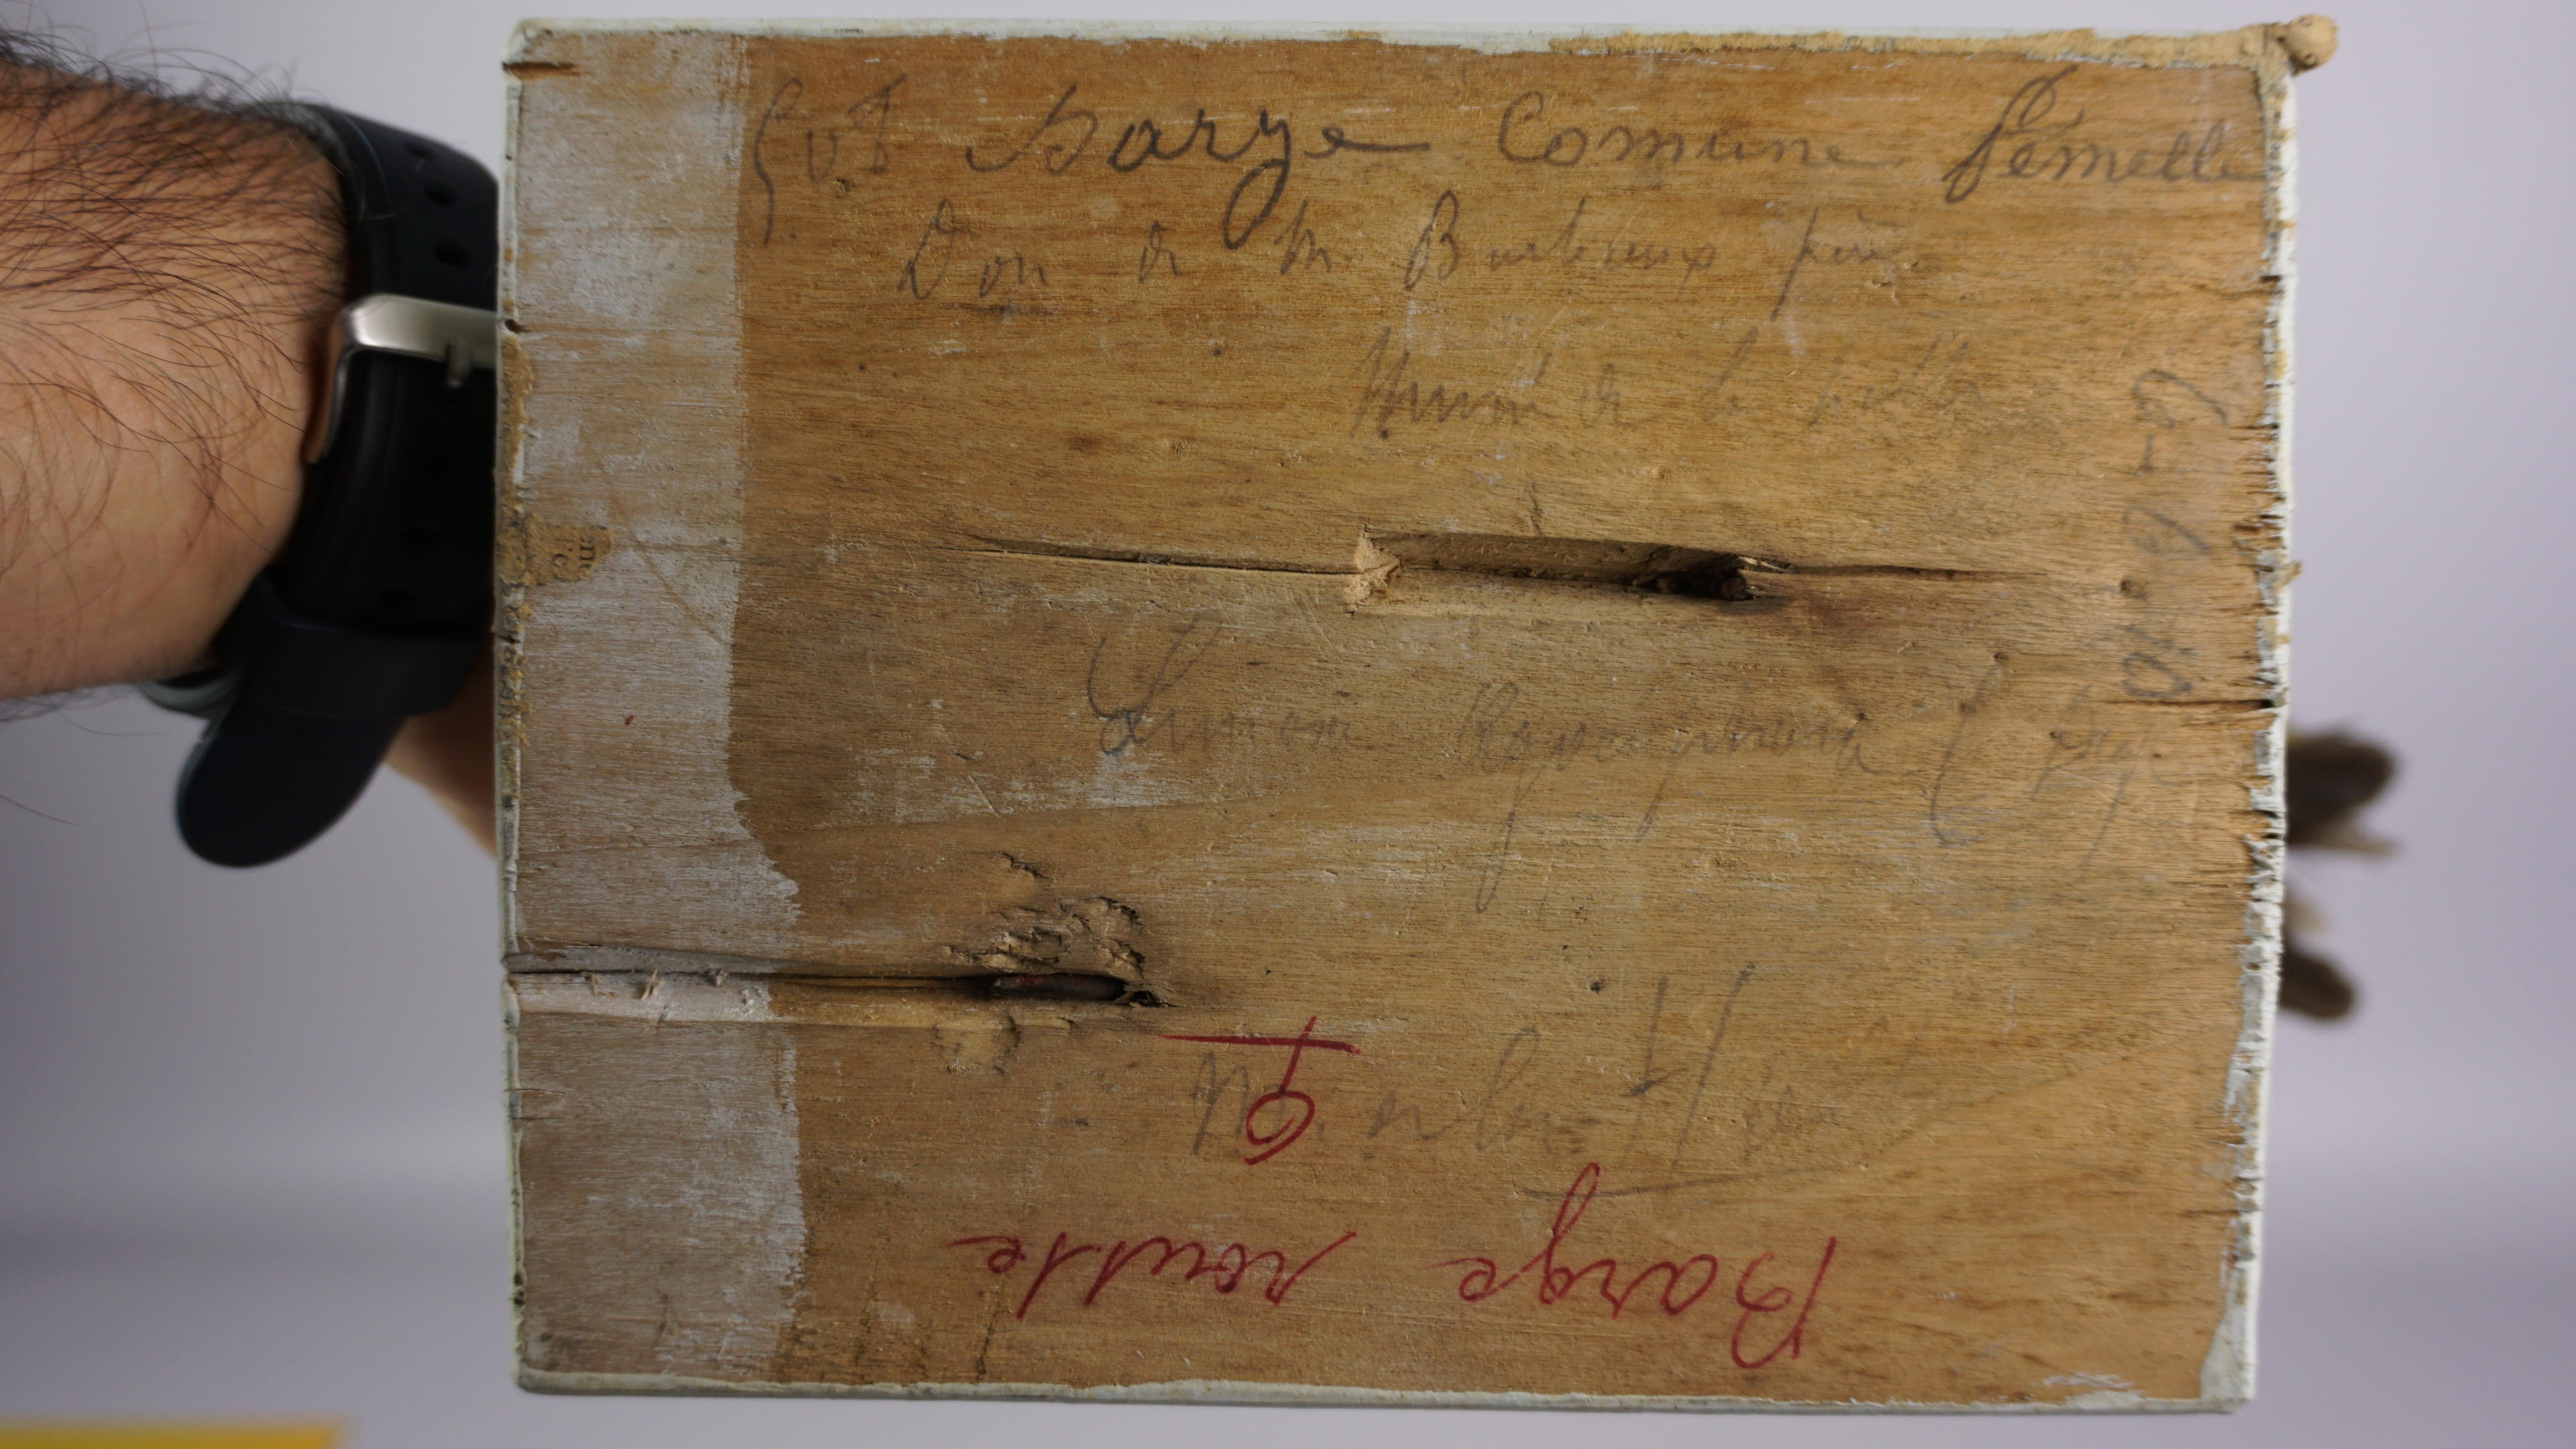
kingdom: Animalia
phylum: Chordata
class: Aves
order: Charadriiformes
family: Scolopacidae
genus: Limosa
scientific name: Limosa limosa
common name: Black-tailed godwit
